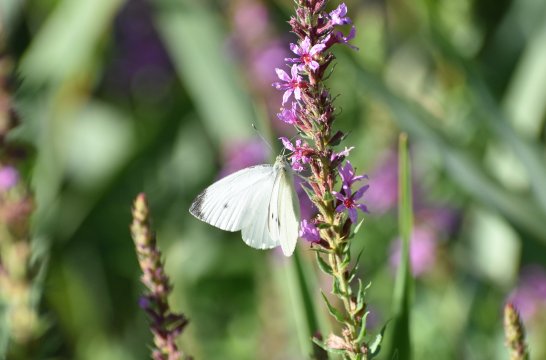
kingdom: Animalia
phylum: Arthropoda
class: Insecta
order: Lepidoptera
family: Pieridae
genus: Pieris
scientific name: Pieris rapae
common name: Cabbage White
